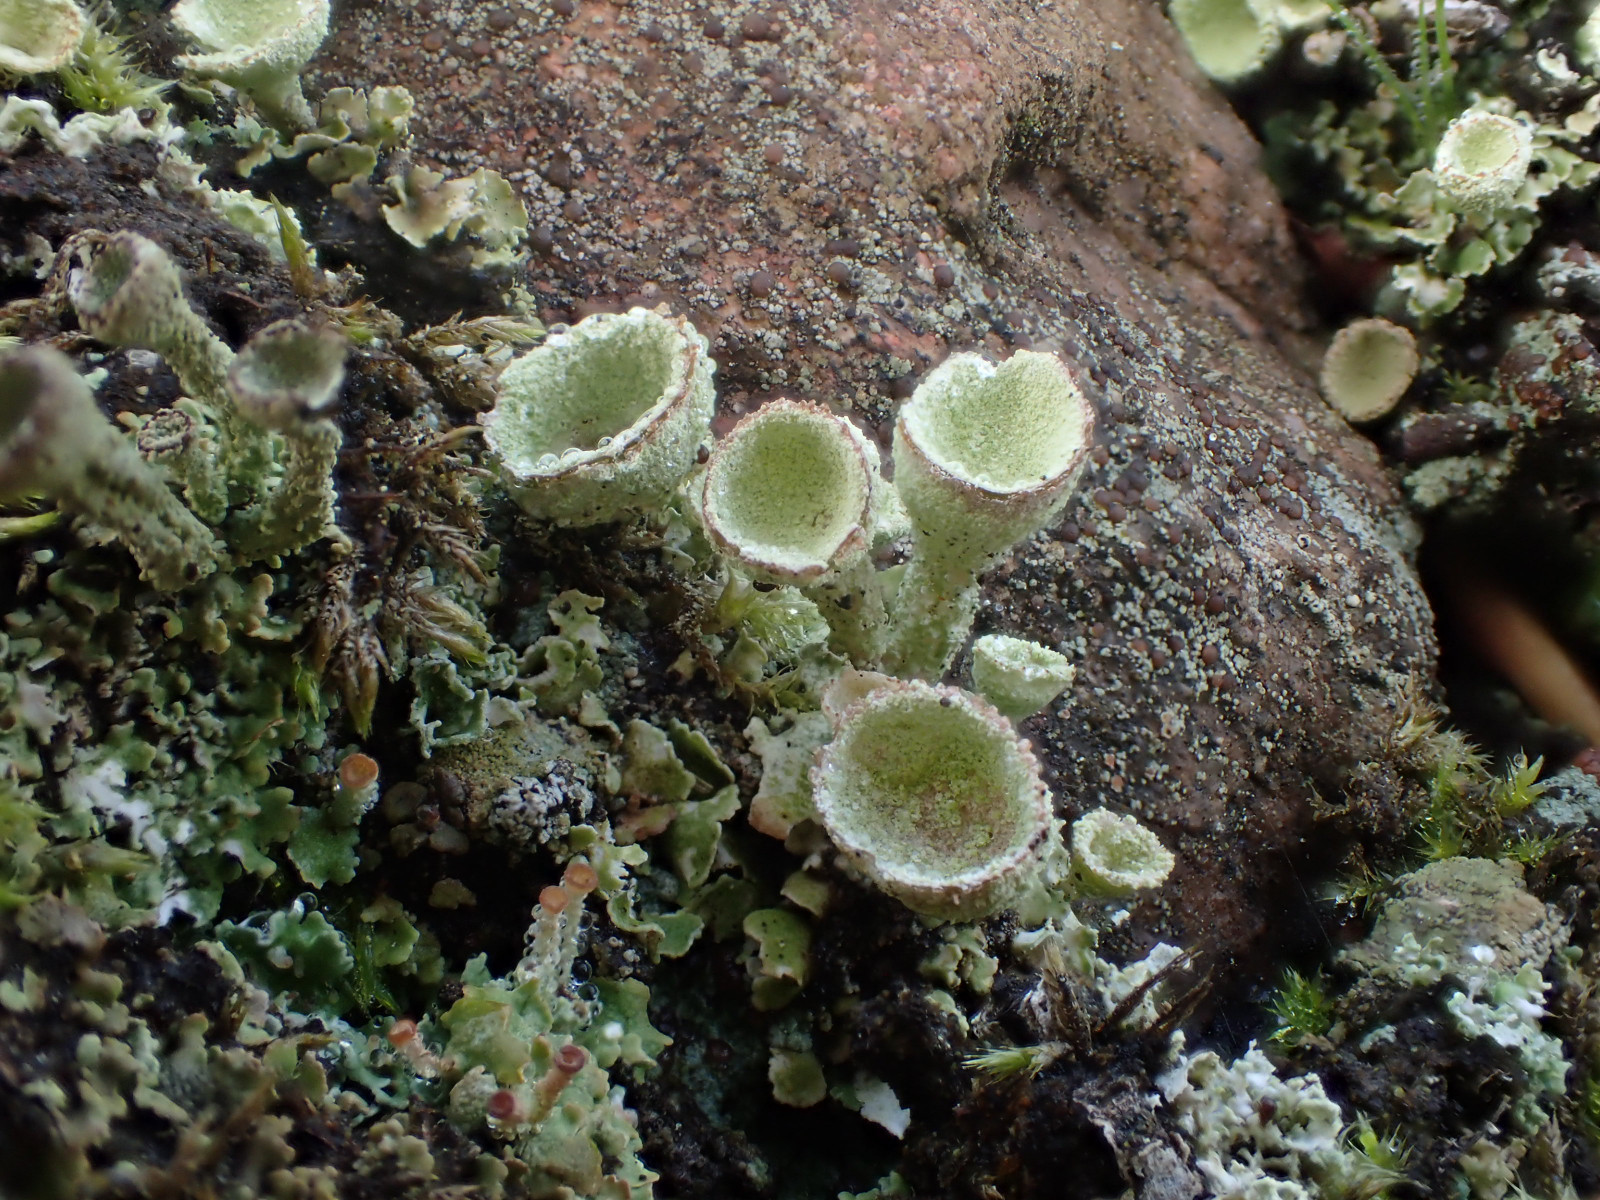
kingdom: Fungi
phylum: Ascomycota
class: Lecanoromycetes
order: Lecanorales
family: Cladoniaceae
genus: Cladonia
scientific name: Cladonia humilis
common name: lav bægerlav
